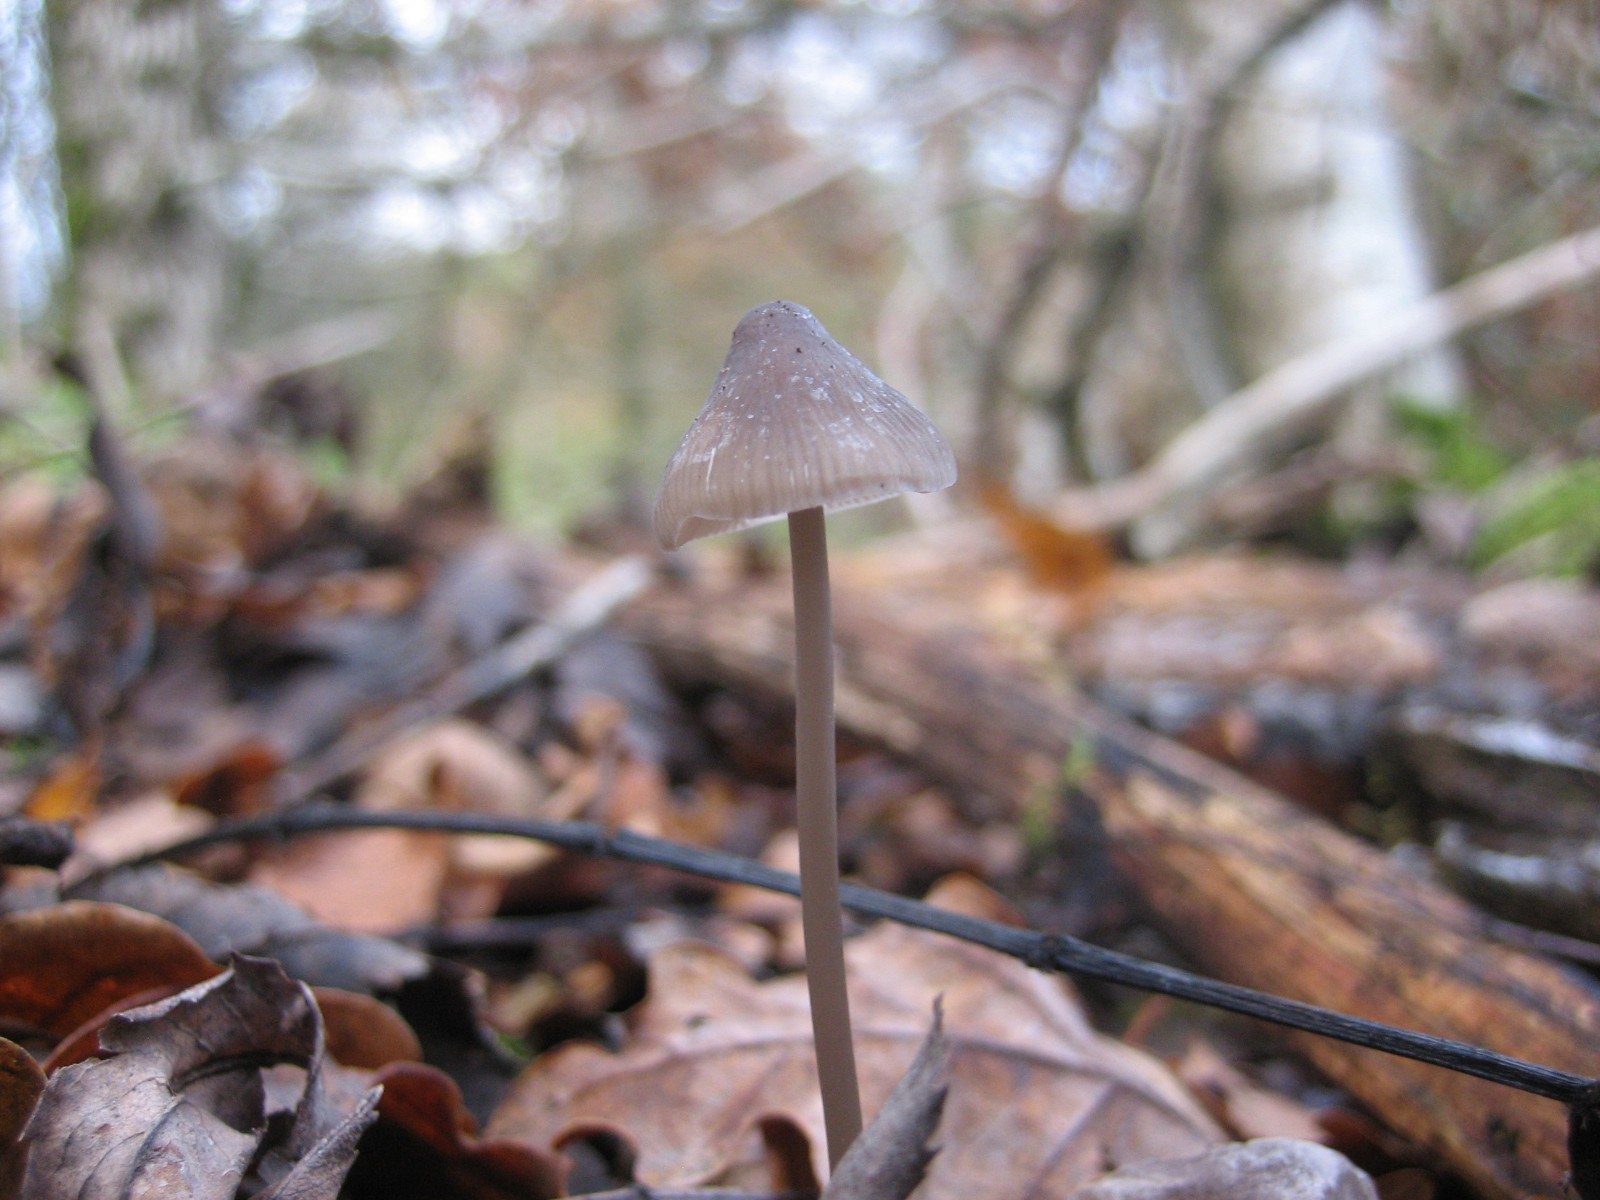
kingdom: Fungi
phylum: Basidiomycota
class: Agaricomycetes
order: Agaricales
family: Mycenaceae
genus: Mycena
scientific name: Mycena vitilis
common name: blankstokket huesvamp
